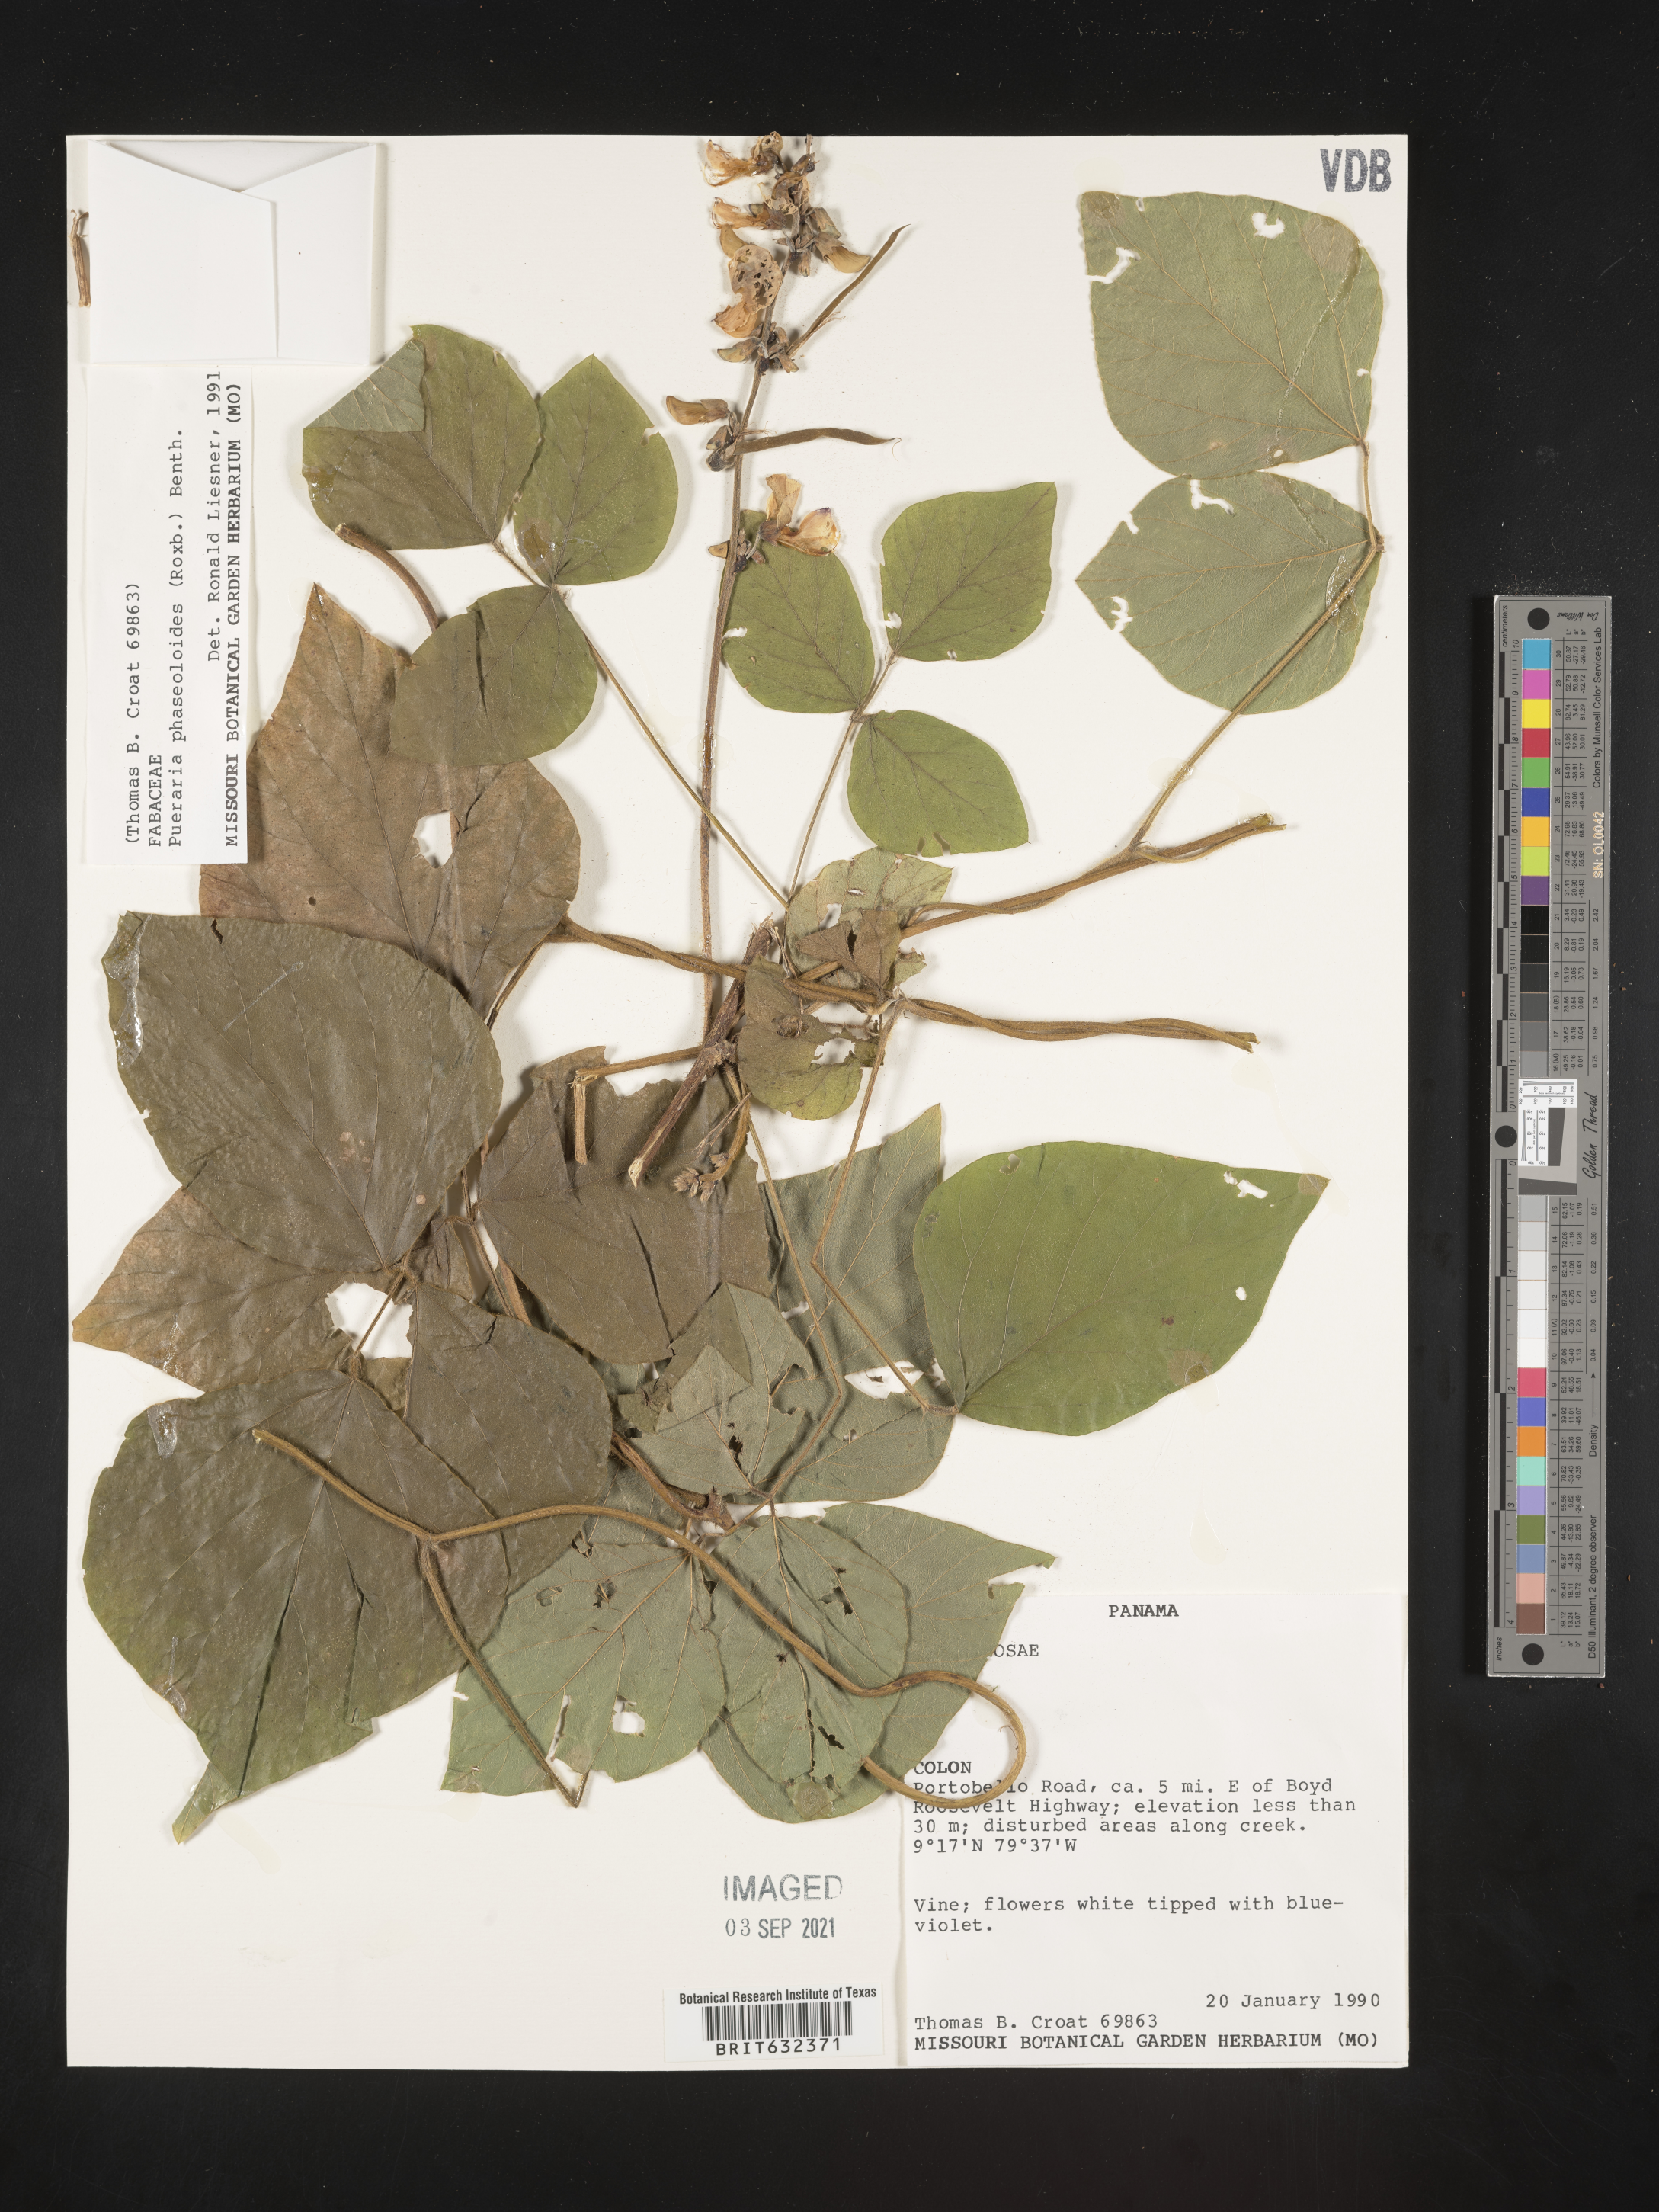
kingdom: Plantae
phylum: Tracheophyta
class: Magnoliopsida
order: Fabales
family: Fabaceae
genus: Pueraria
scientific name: Pueraria
